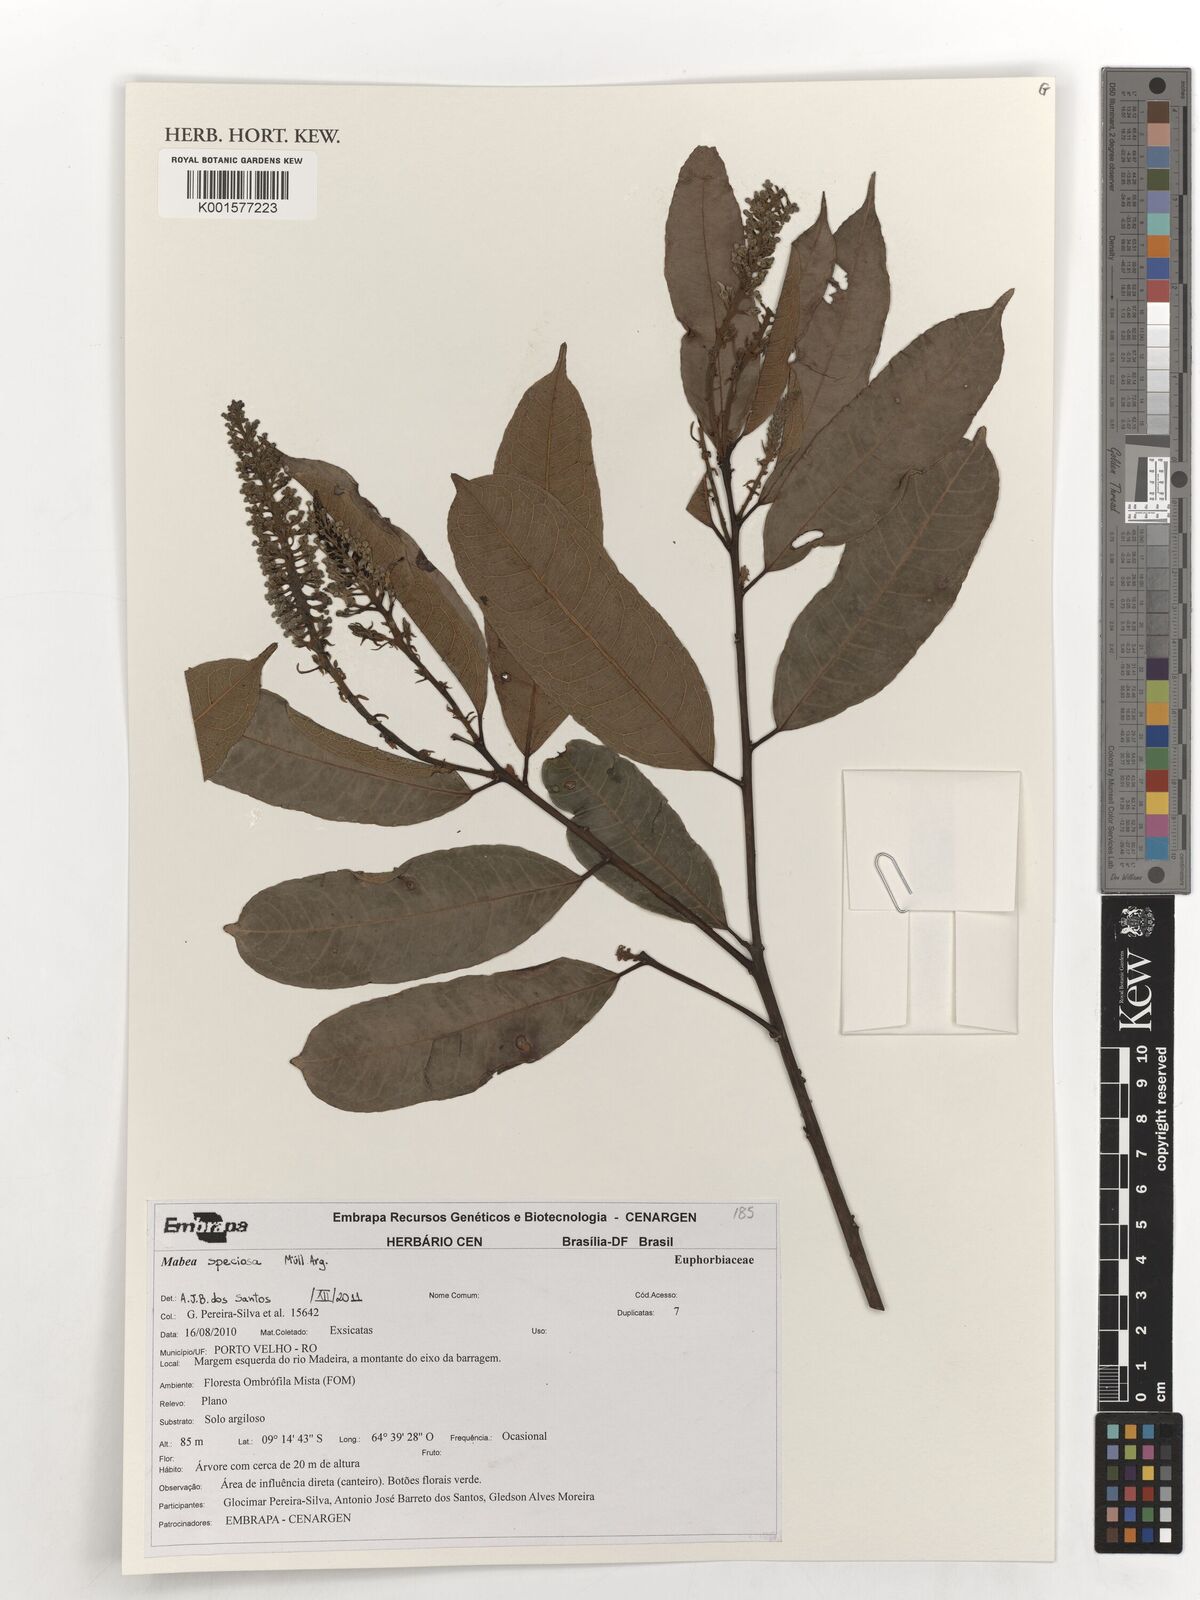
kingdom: Plantae
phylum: Tracheophyta
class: Magnoliopsida
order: Malpighiales
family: Euphorbiaceae
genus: Mabea
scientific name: Mabea speciosa
